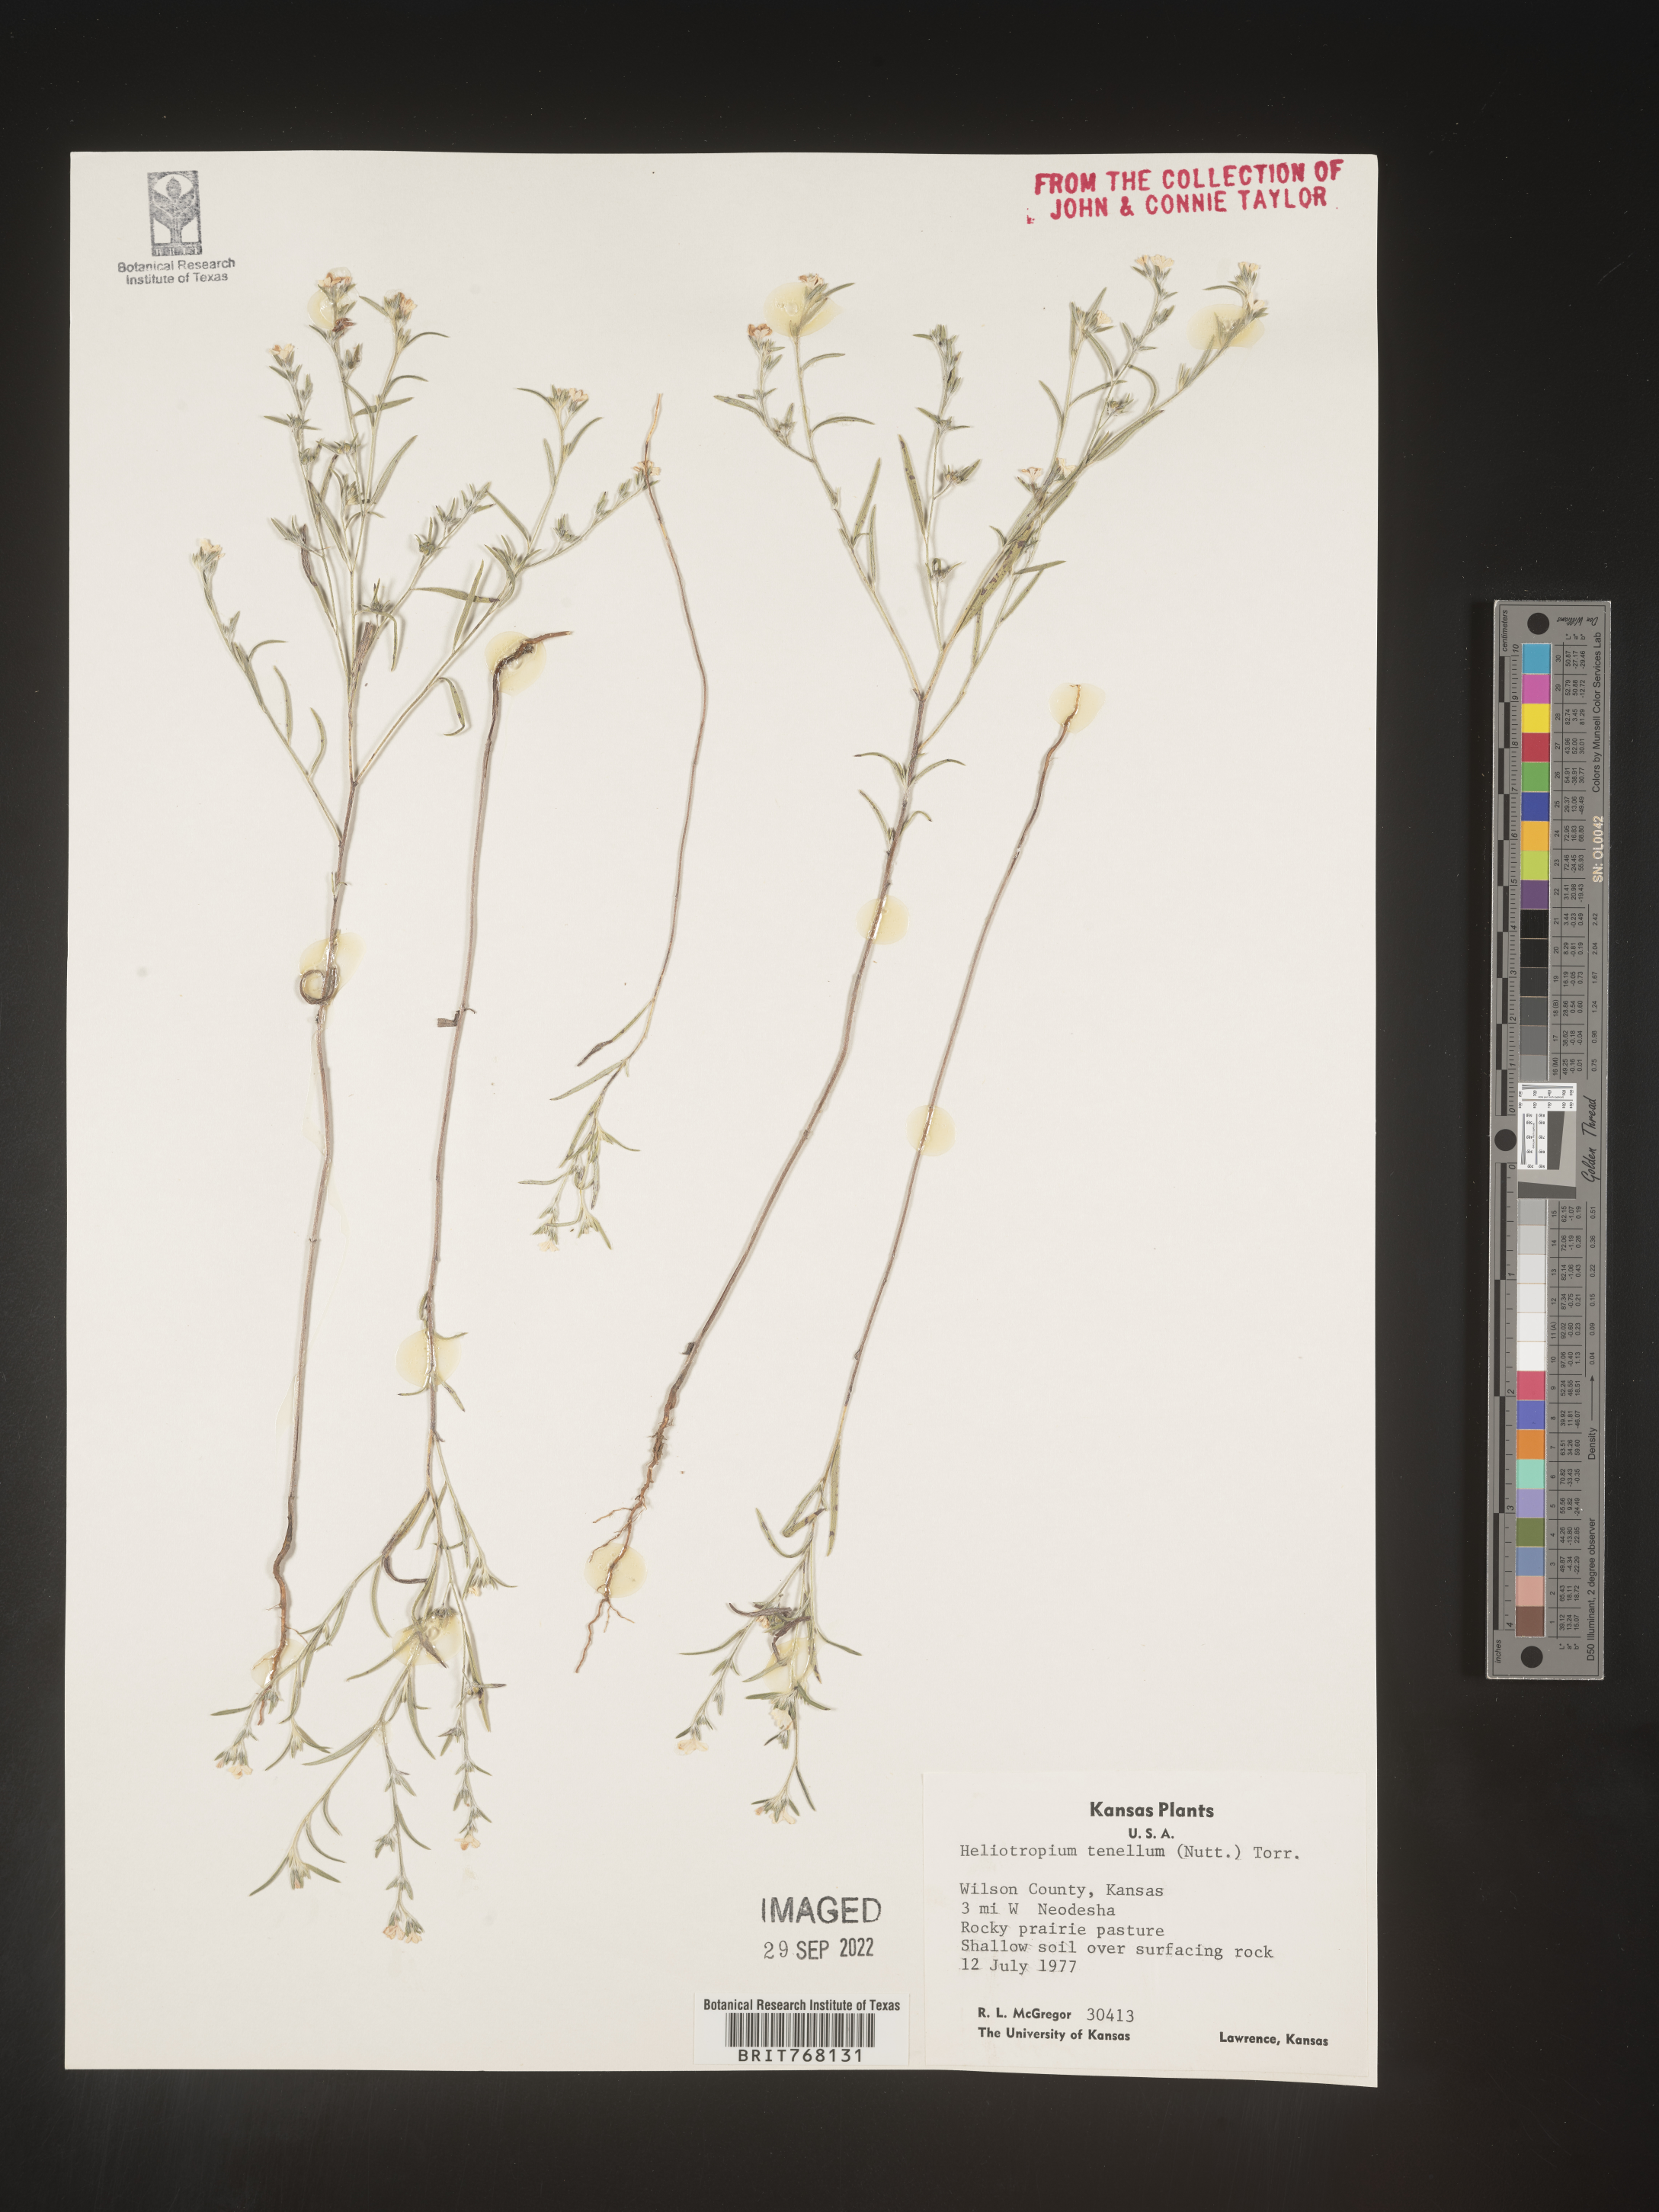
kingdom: Plantae
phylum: Tracheophyta
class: Magnoliopsida
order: Boraginales
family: Heliotropiaceae
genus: Euploca
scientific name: Euploca tenella
